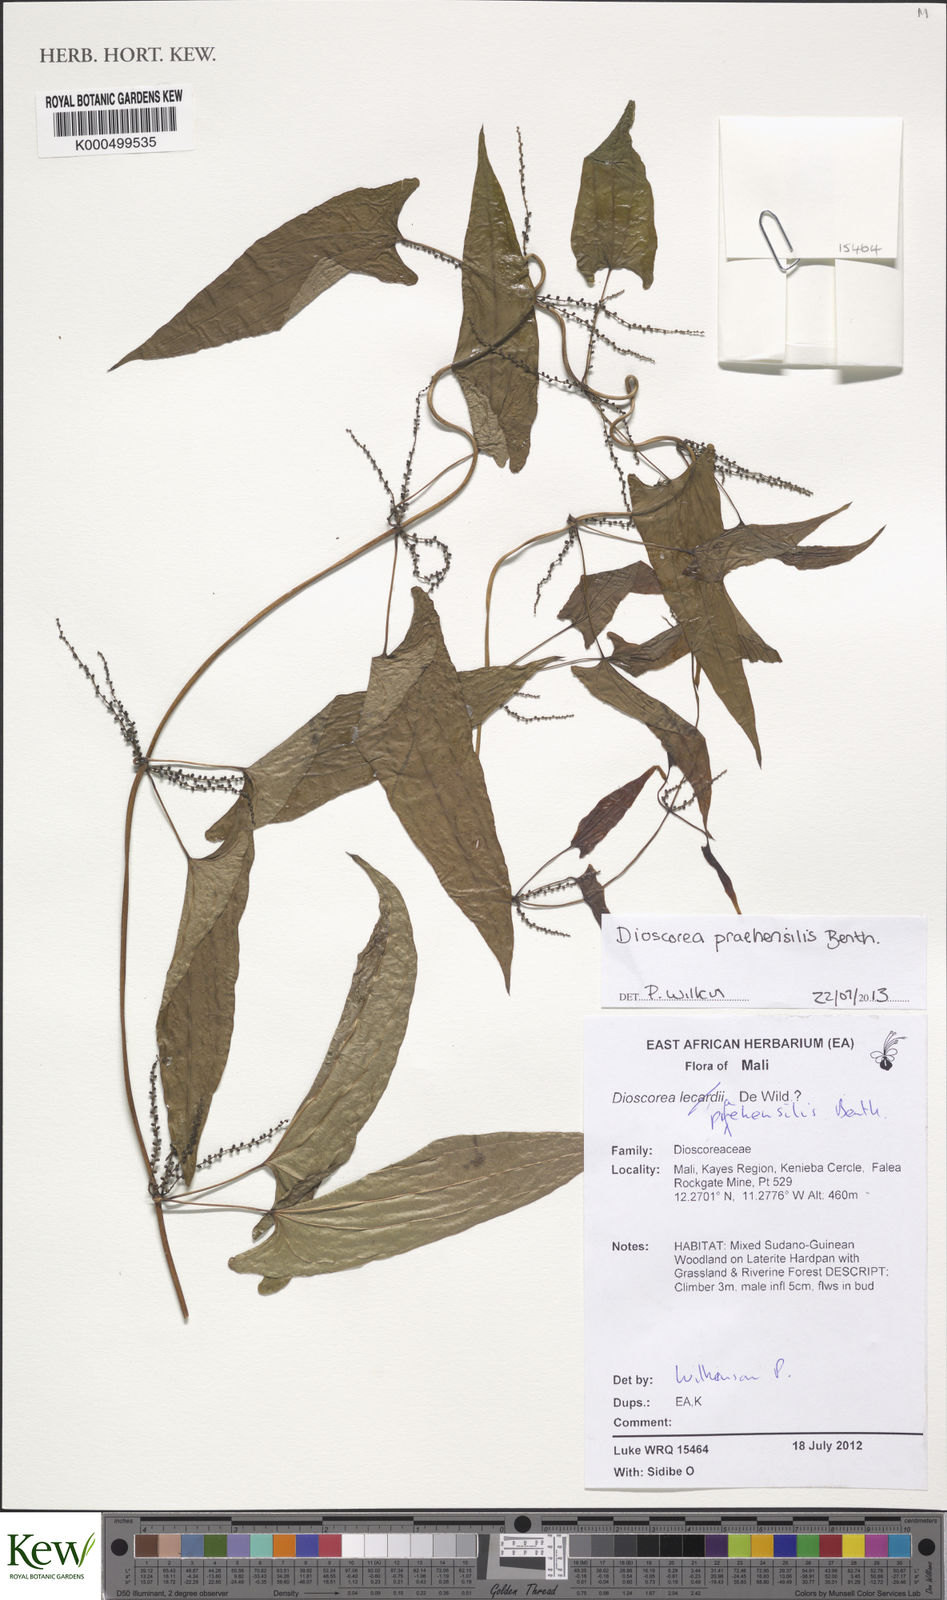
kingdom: Plantae
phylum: Tracheophyta
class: Liliopsida
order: Dioscoreales
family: Dioscoreaceae
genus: Dioscorea
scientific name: Dioscorea praehensilis
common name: Bush yam
